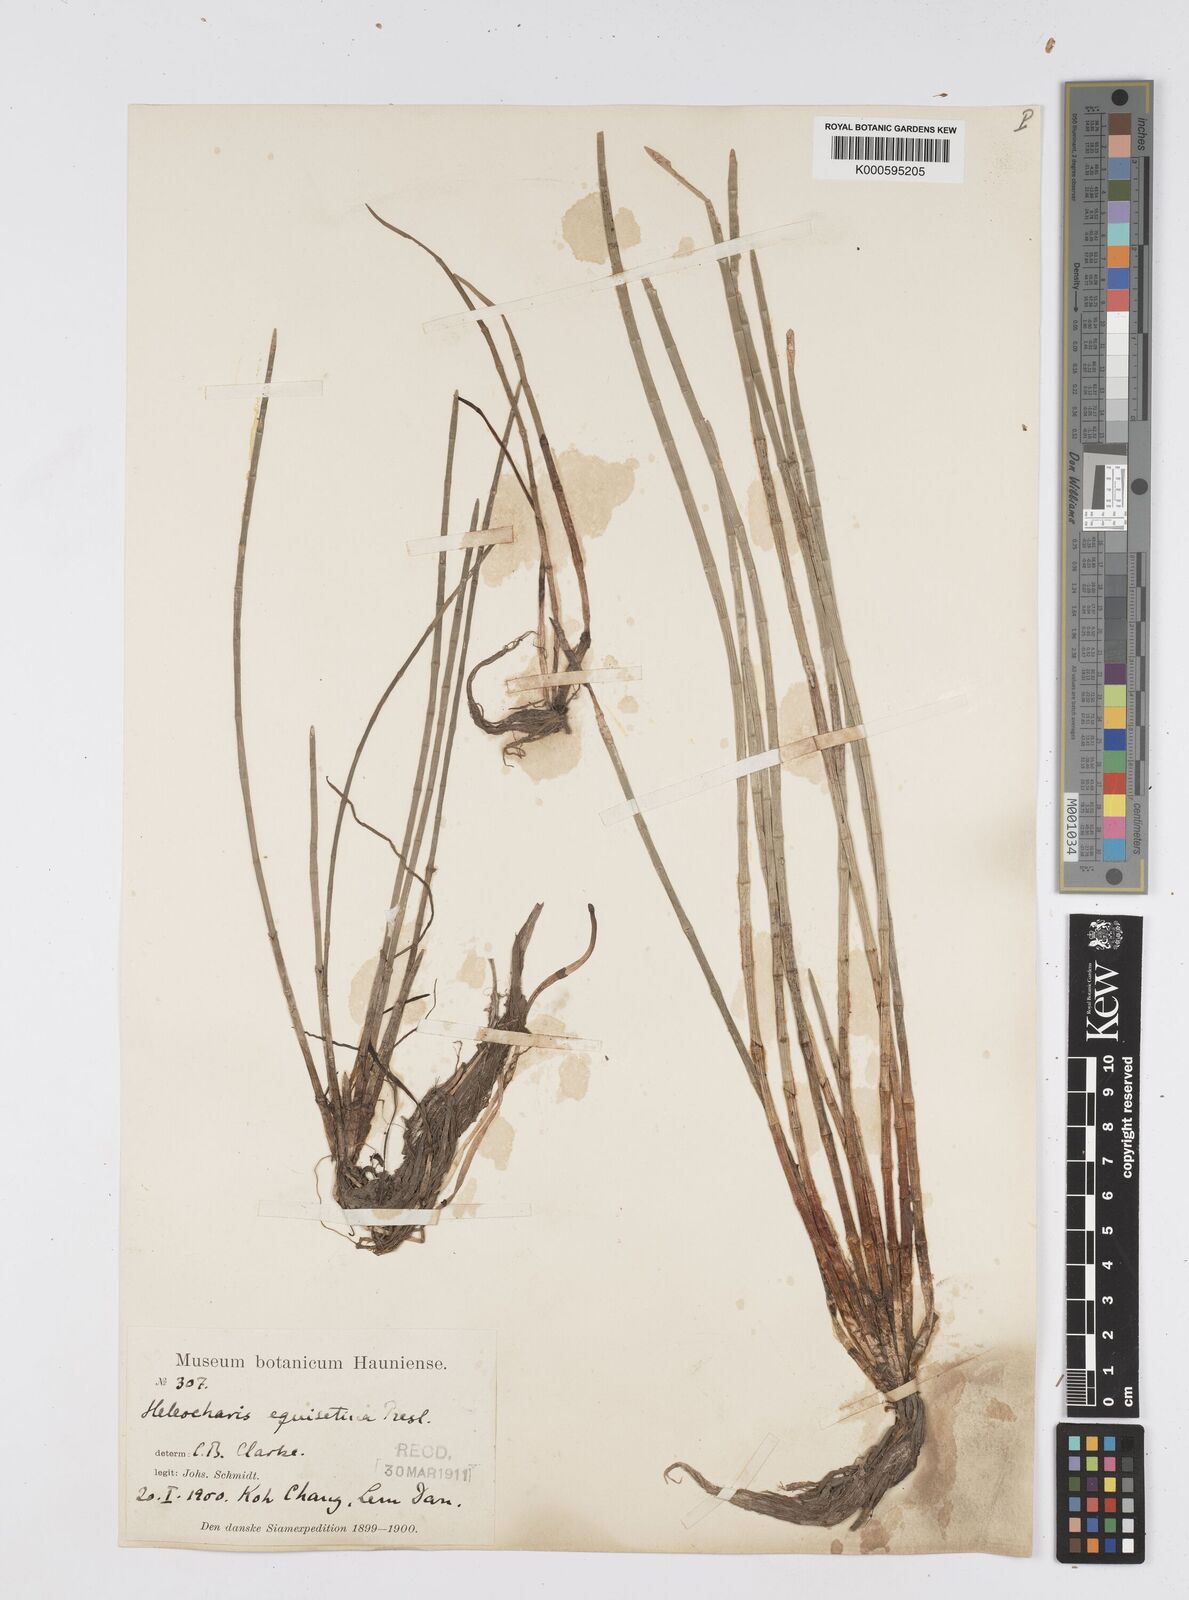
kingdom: Plantae
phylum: Tracheophyta
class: Liliopsida
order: Poales
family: Cyperaceae
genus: Eleocharis
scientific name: Eleocharis dulcis
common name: Chinese water chestnut
